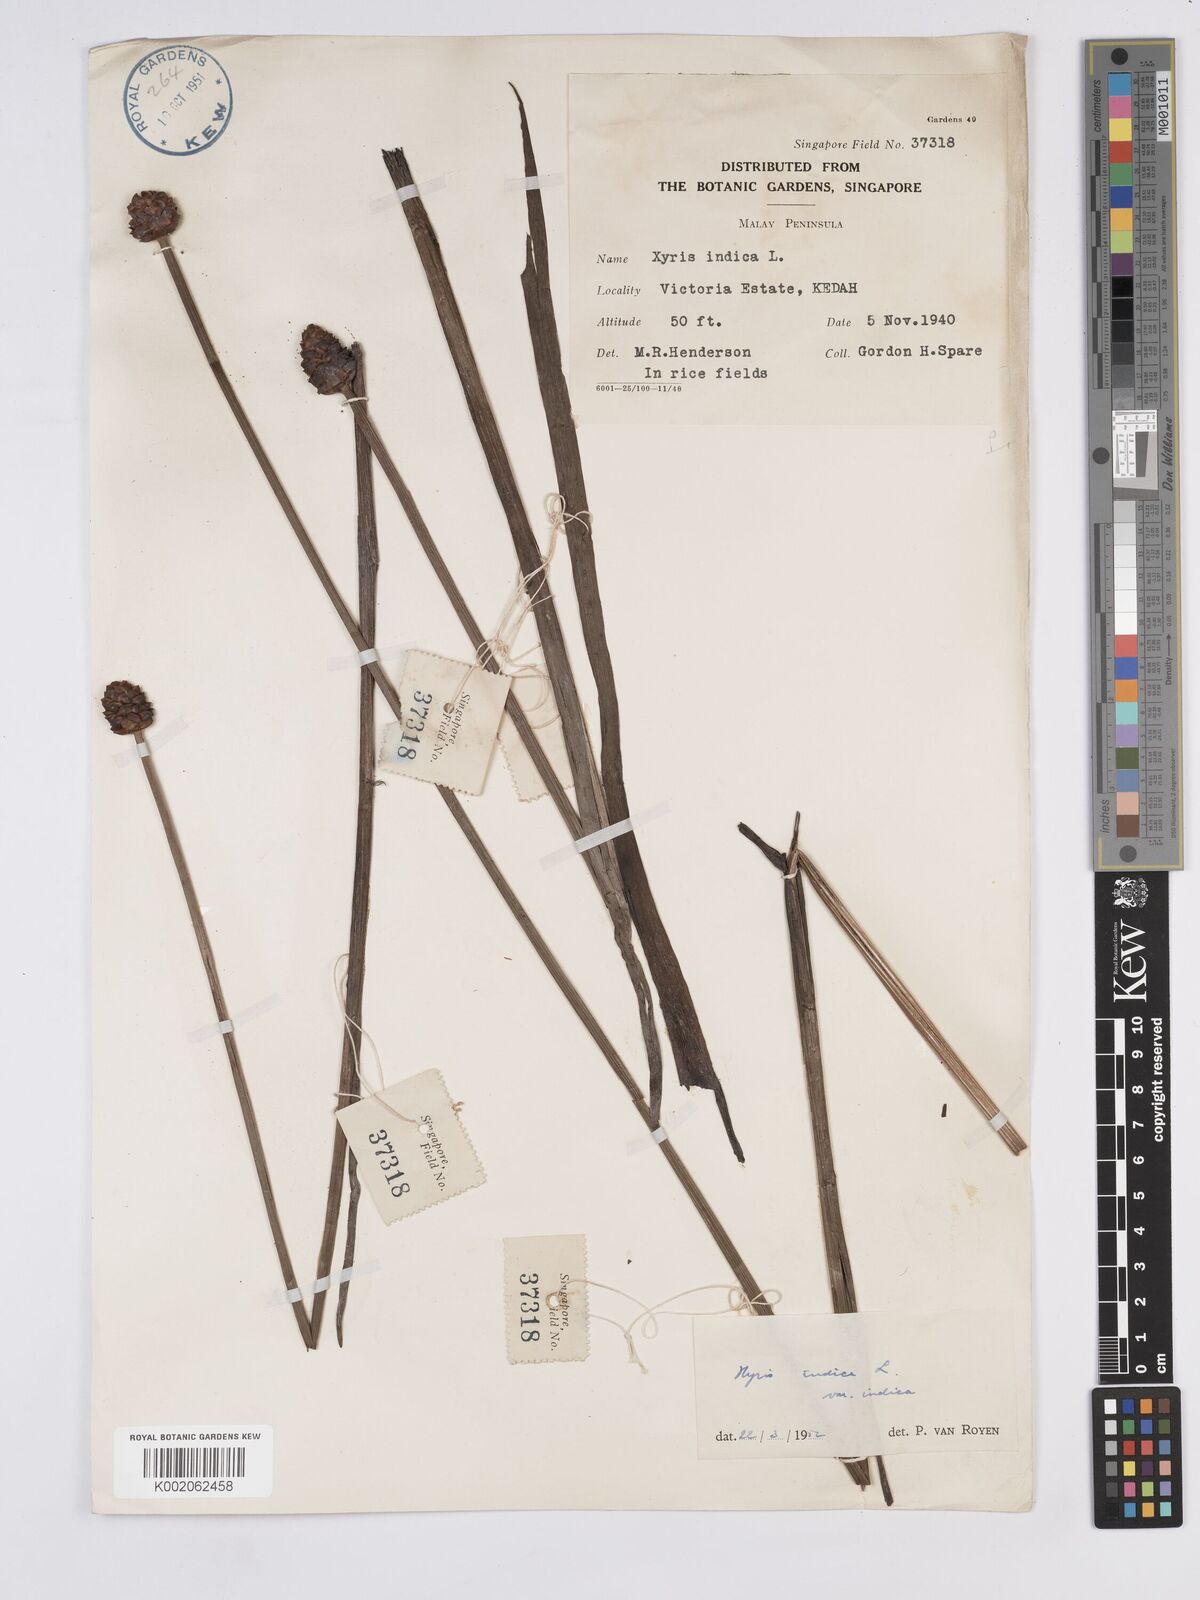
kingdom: Plantae
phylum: Tracheophyta
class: Liliopsida
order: Poales
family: Xyridaceae
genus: Xyris
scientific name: Xyris indica
